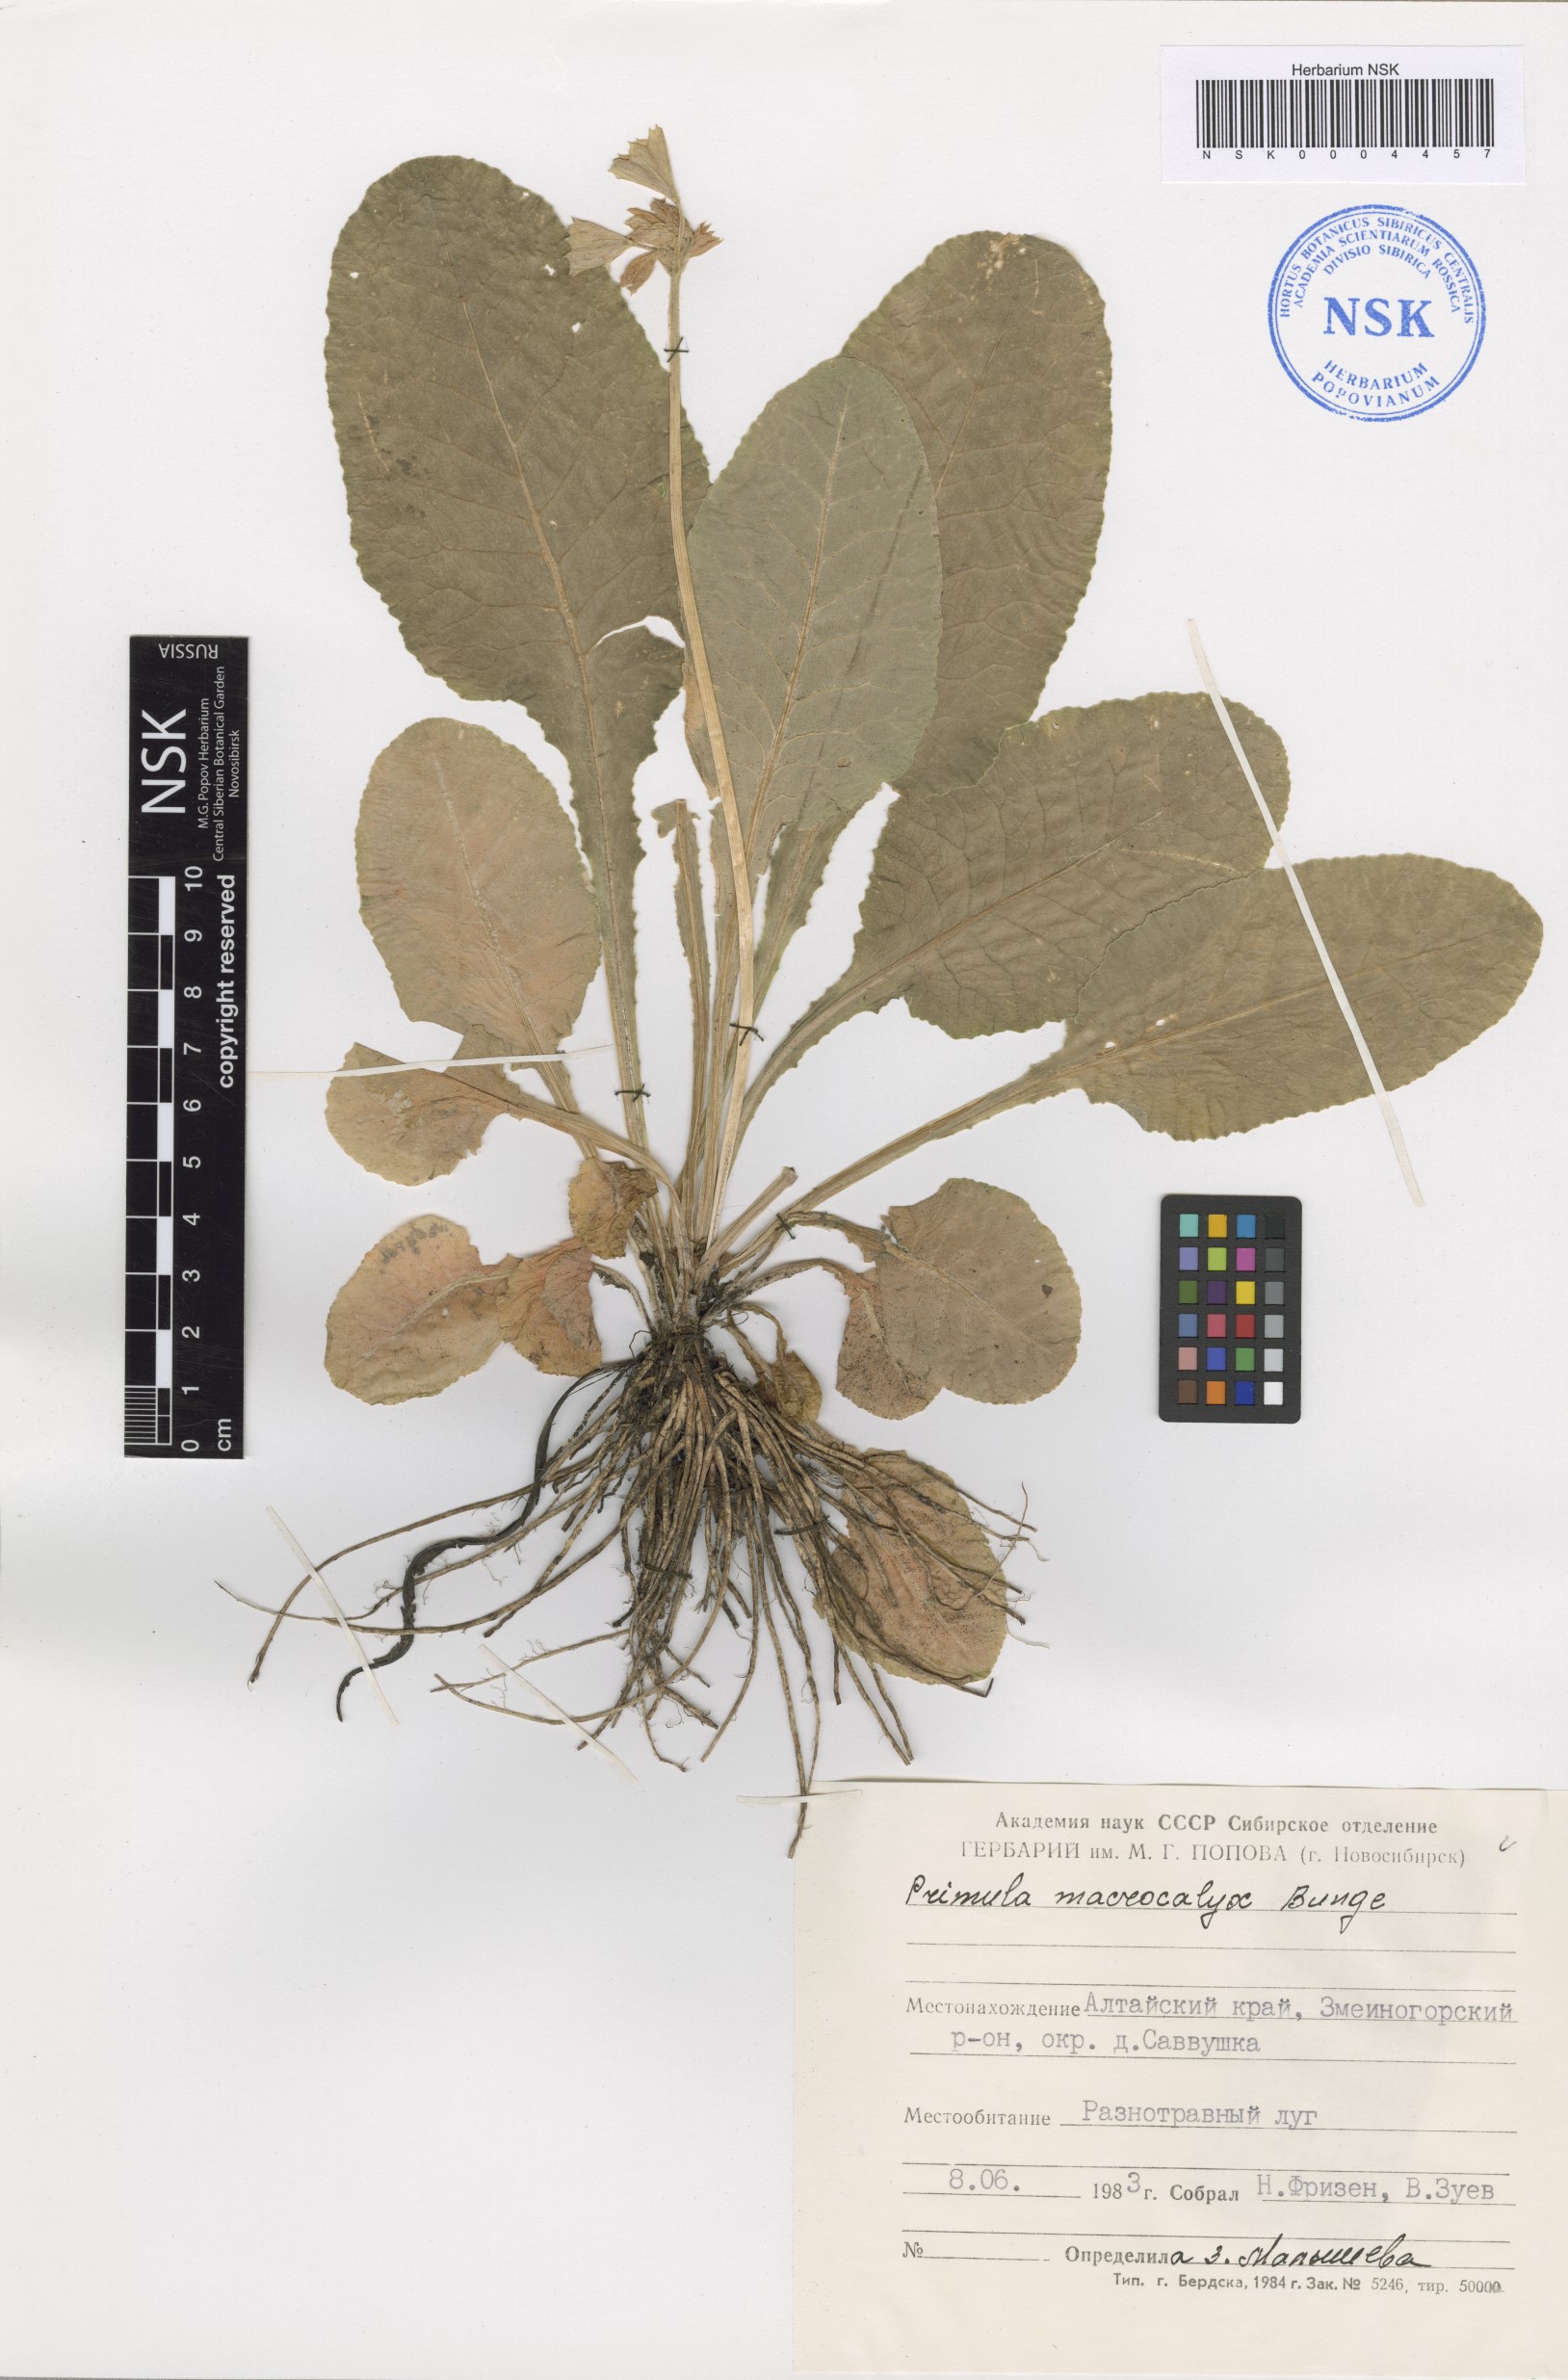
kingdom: Plantae
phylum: Tracheophyta
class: Magnoliopsida
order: Ericales
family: Primulaceae
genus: Primula
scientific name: Primula veris
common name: Cowslip
